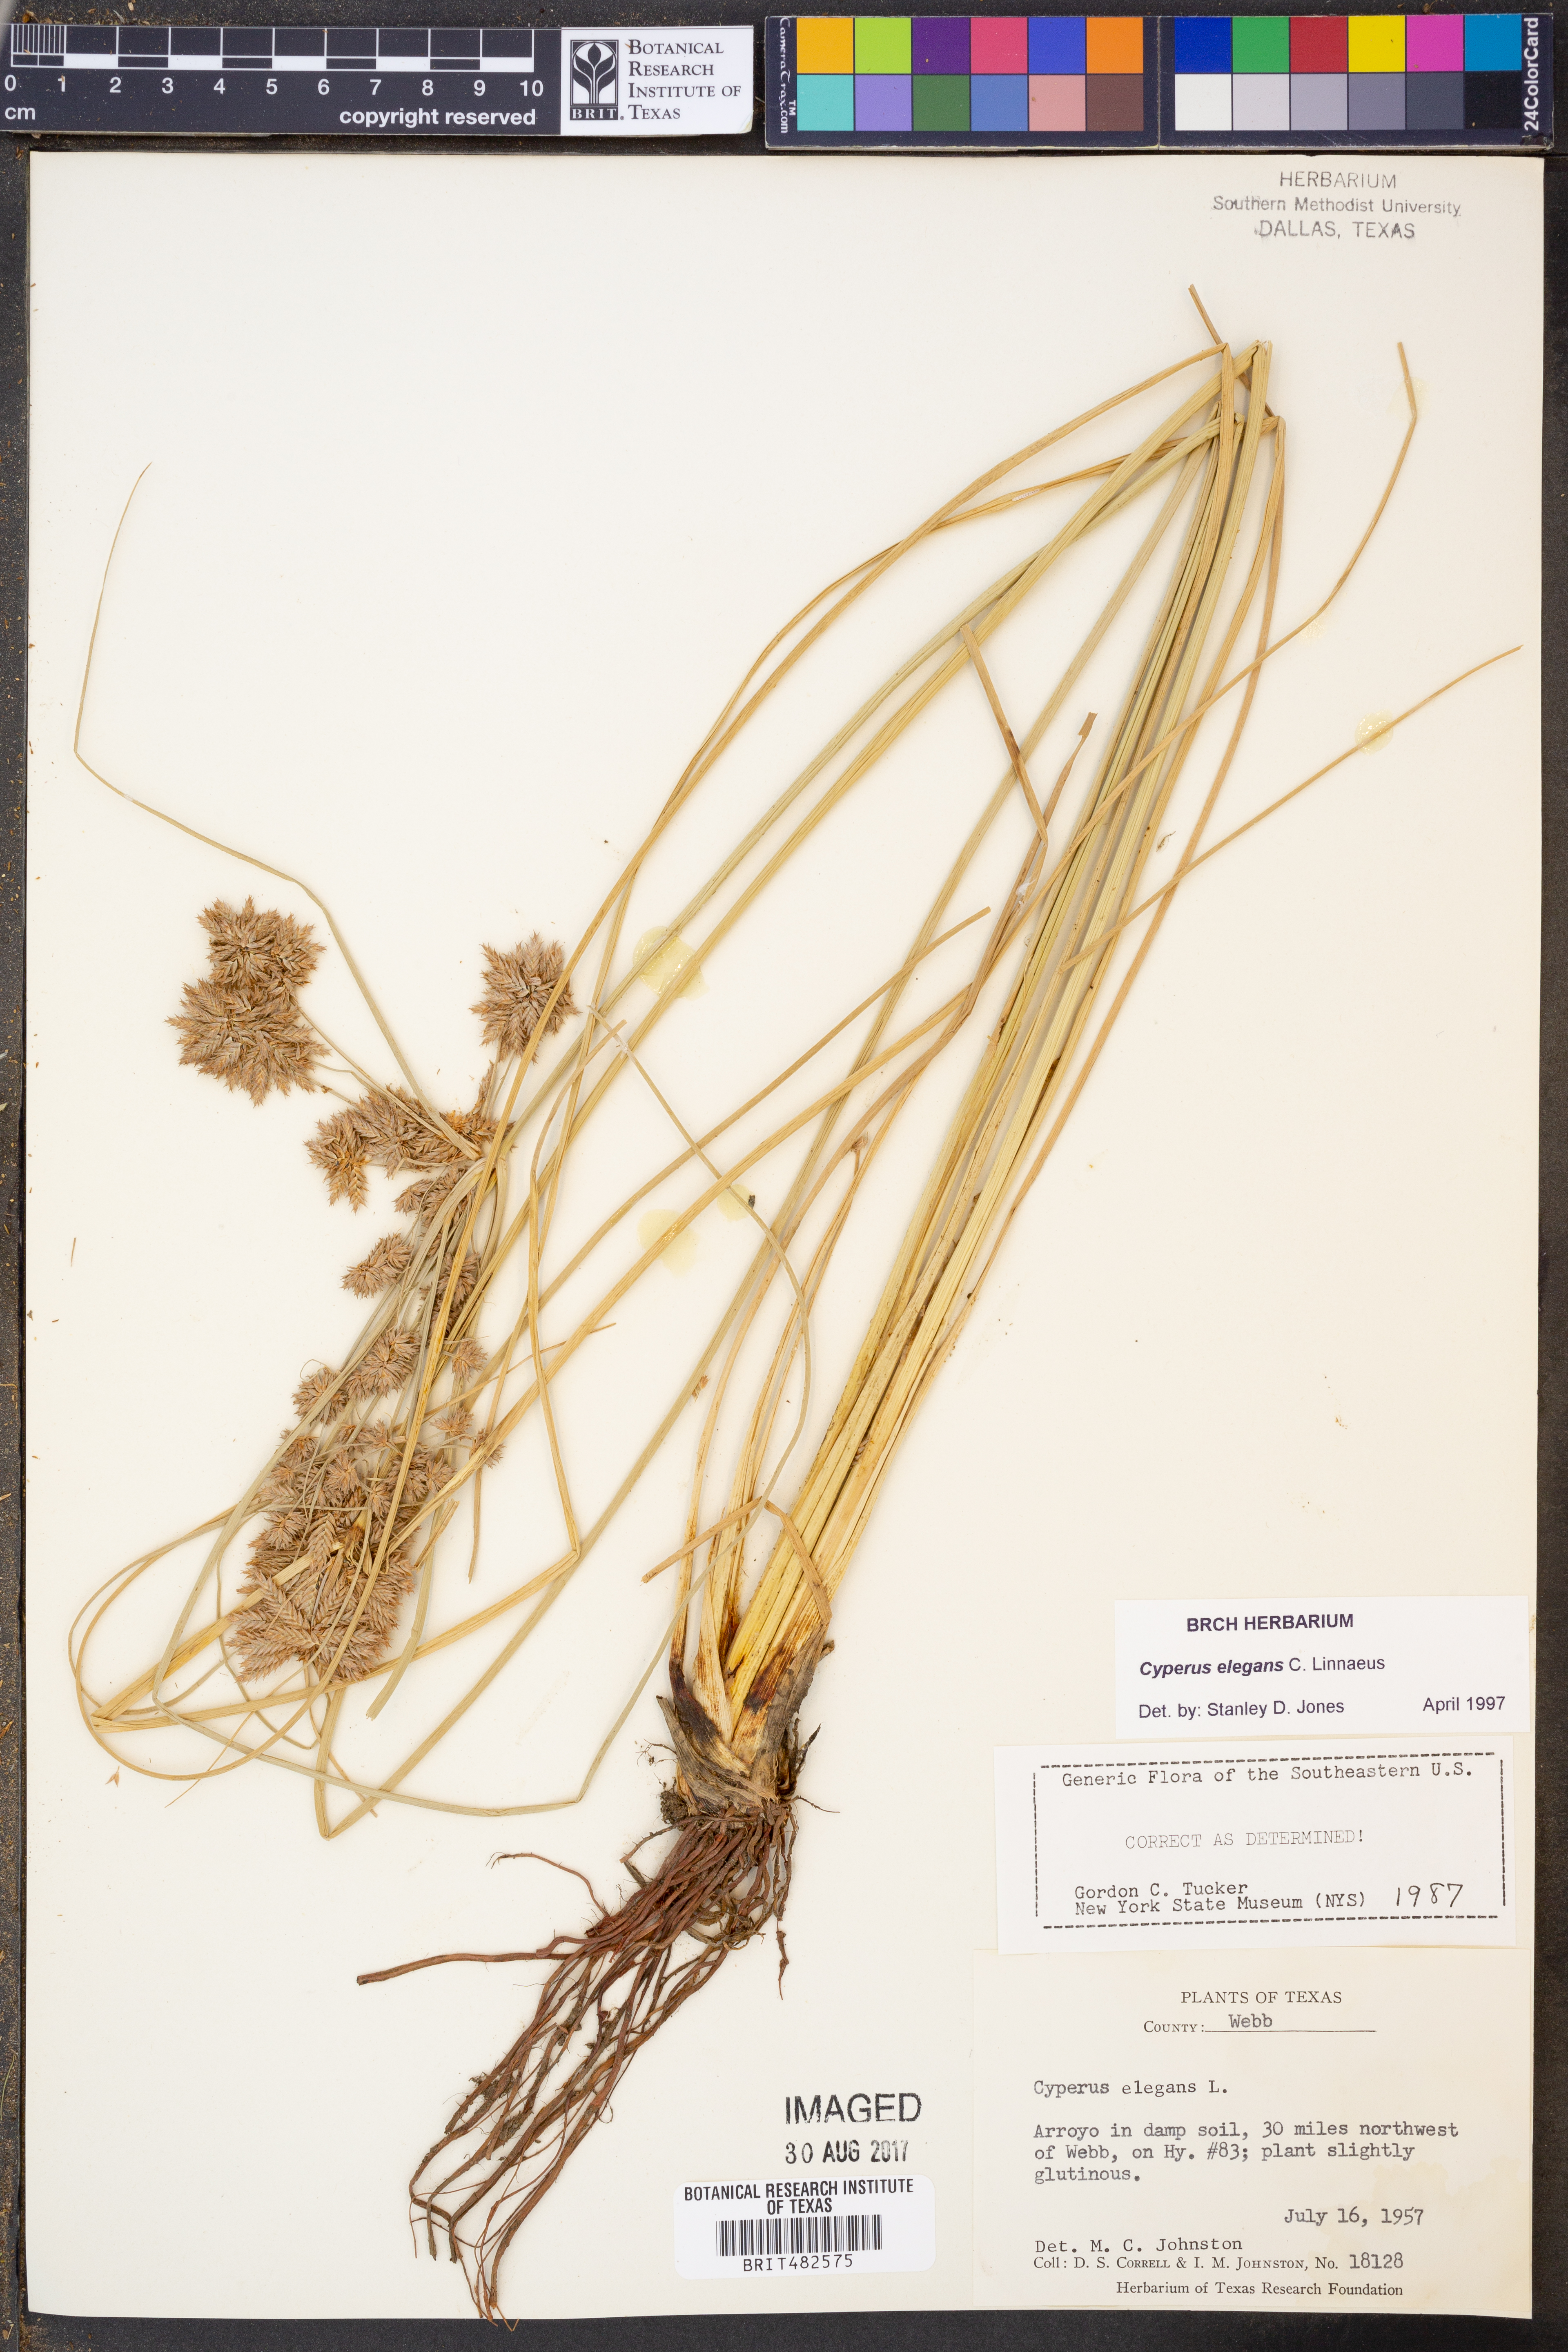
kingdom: Plantae
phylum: Tracheophyta
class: Liliopsida
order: Poales
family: Cyperaceae
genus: Cyperus
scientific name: Cyperus elegans
